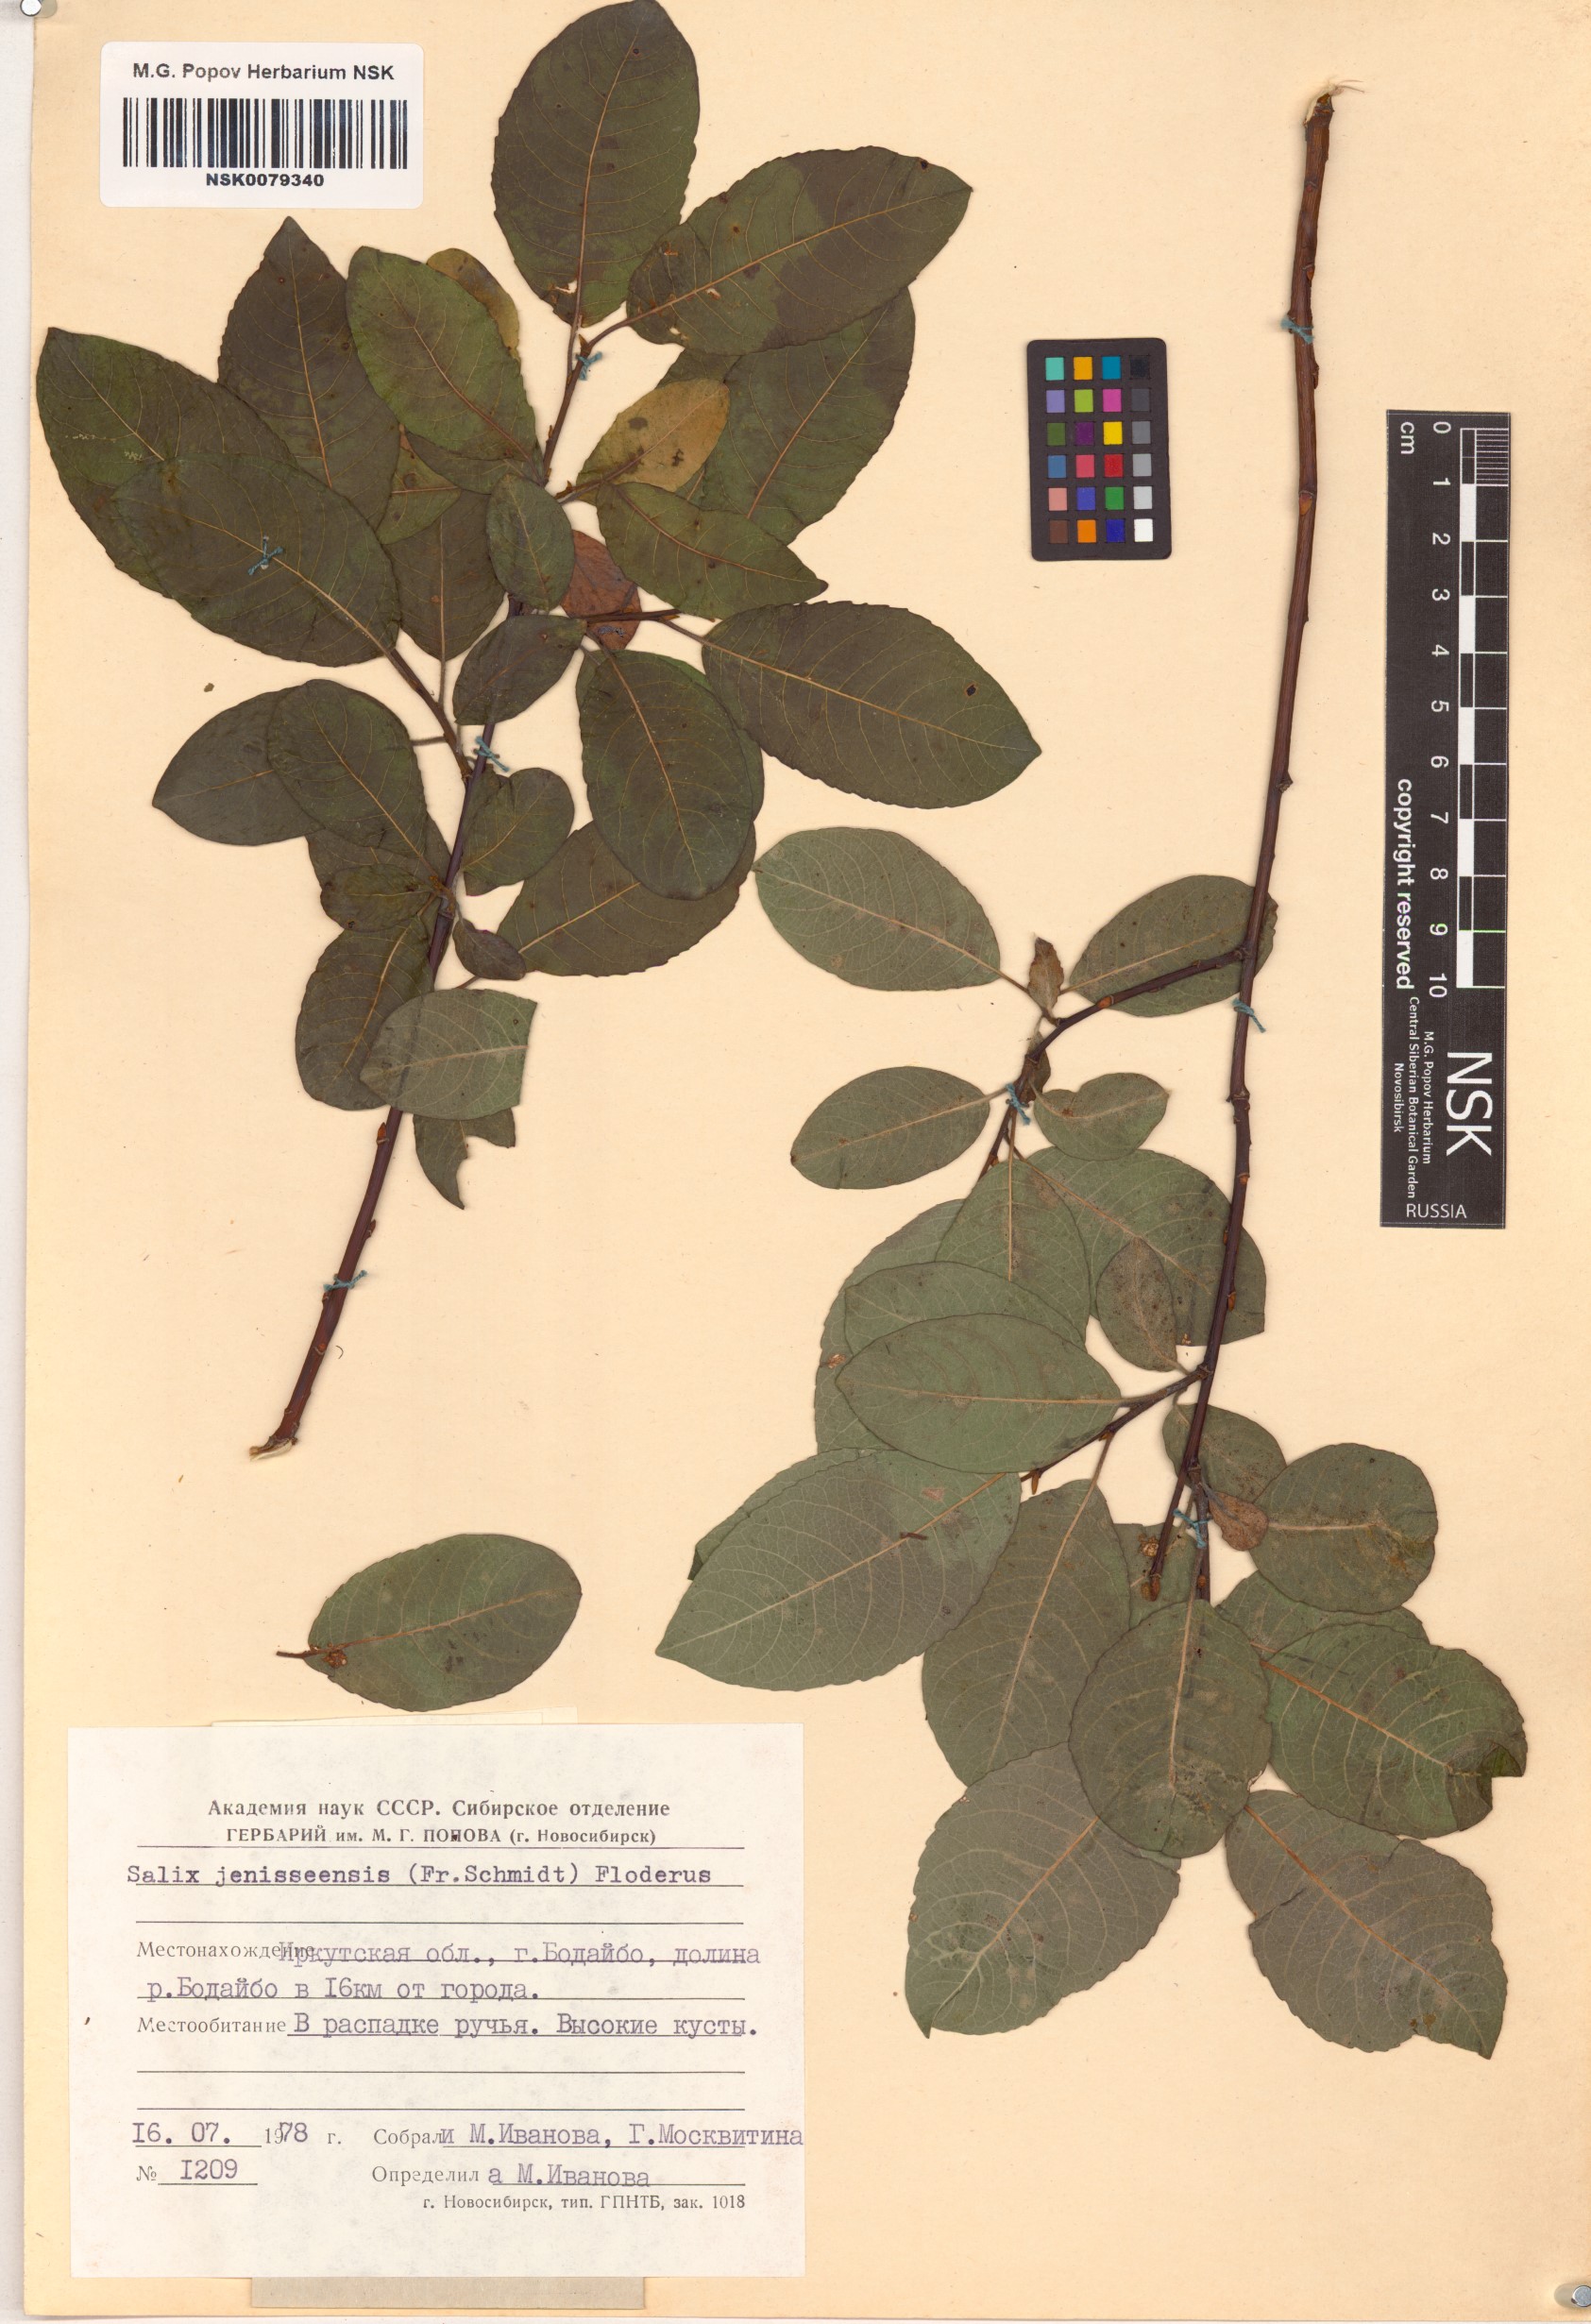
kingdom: Plantae
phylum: Tracheophyta
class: Magnoliopsida
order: Malpighiales
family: Salicaceae
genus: Salix
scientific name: Salix jenisseensis
